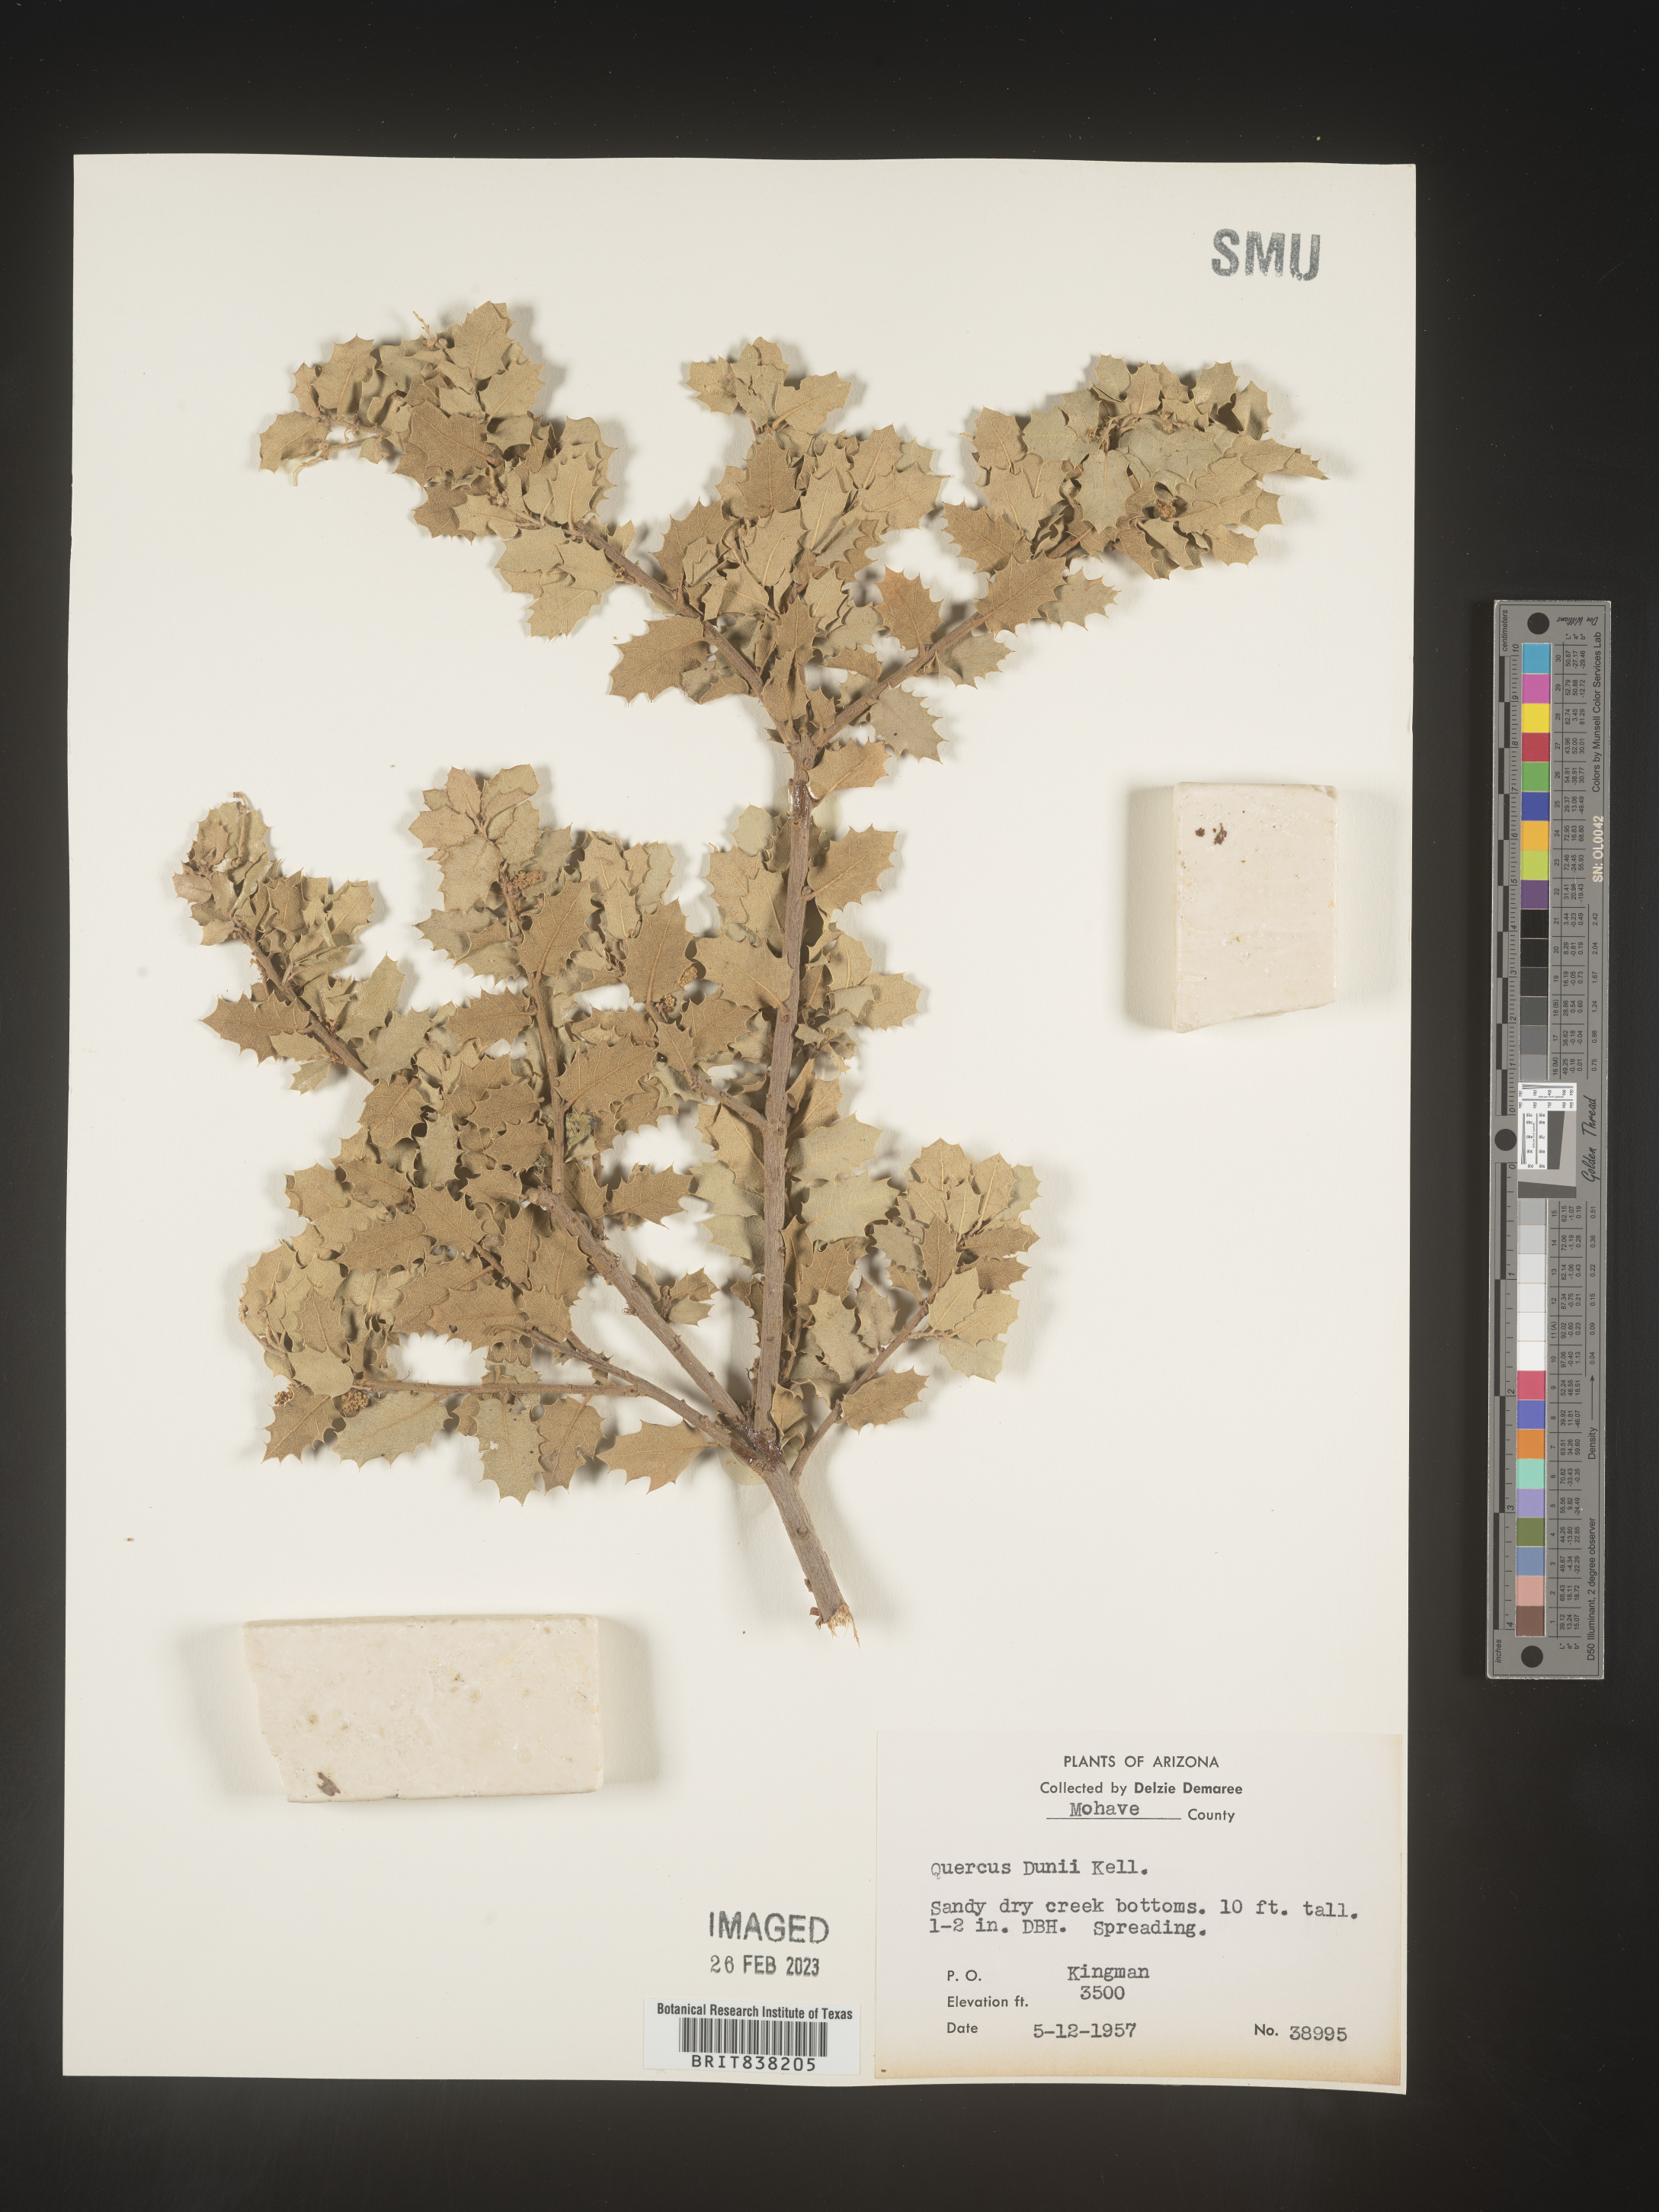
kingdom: Plantae
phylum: Tracheophyta
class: Magnoliopsida
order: Fagales
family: Fagaceae
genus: Quercus
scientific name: Quercus
